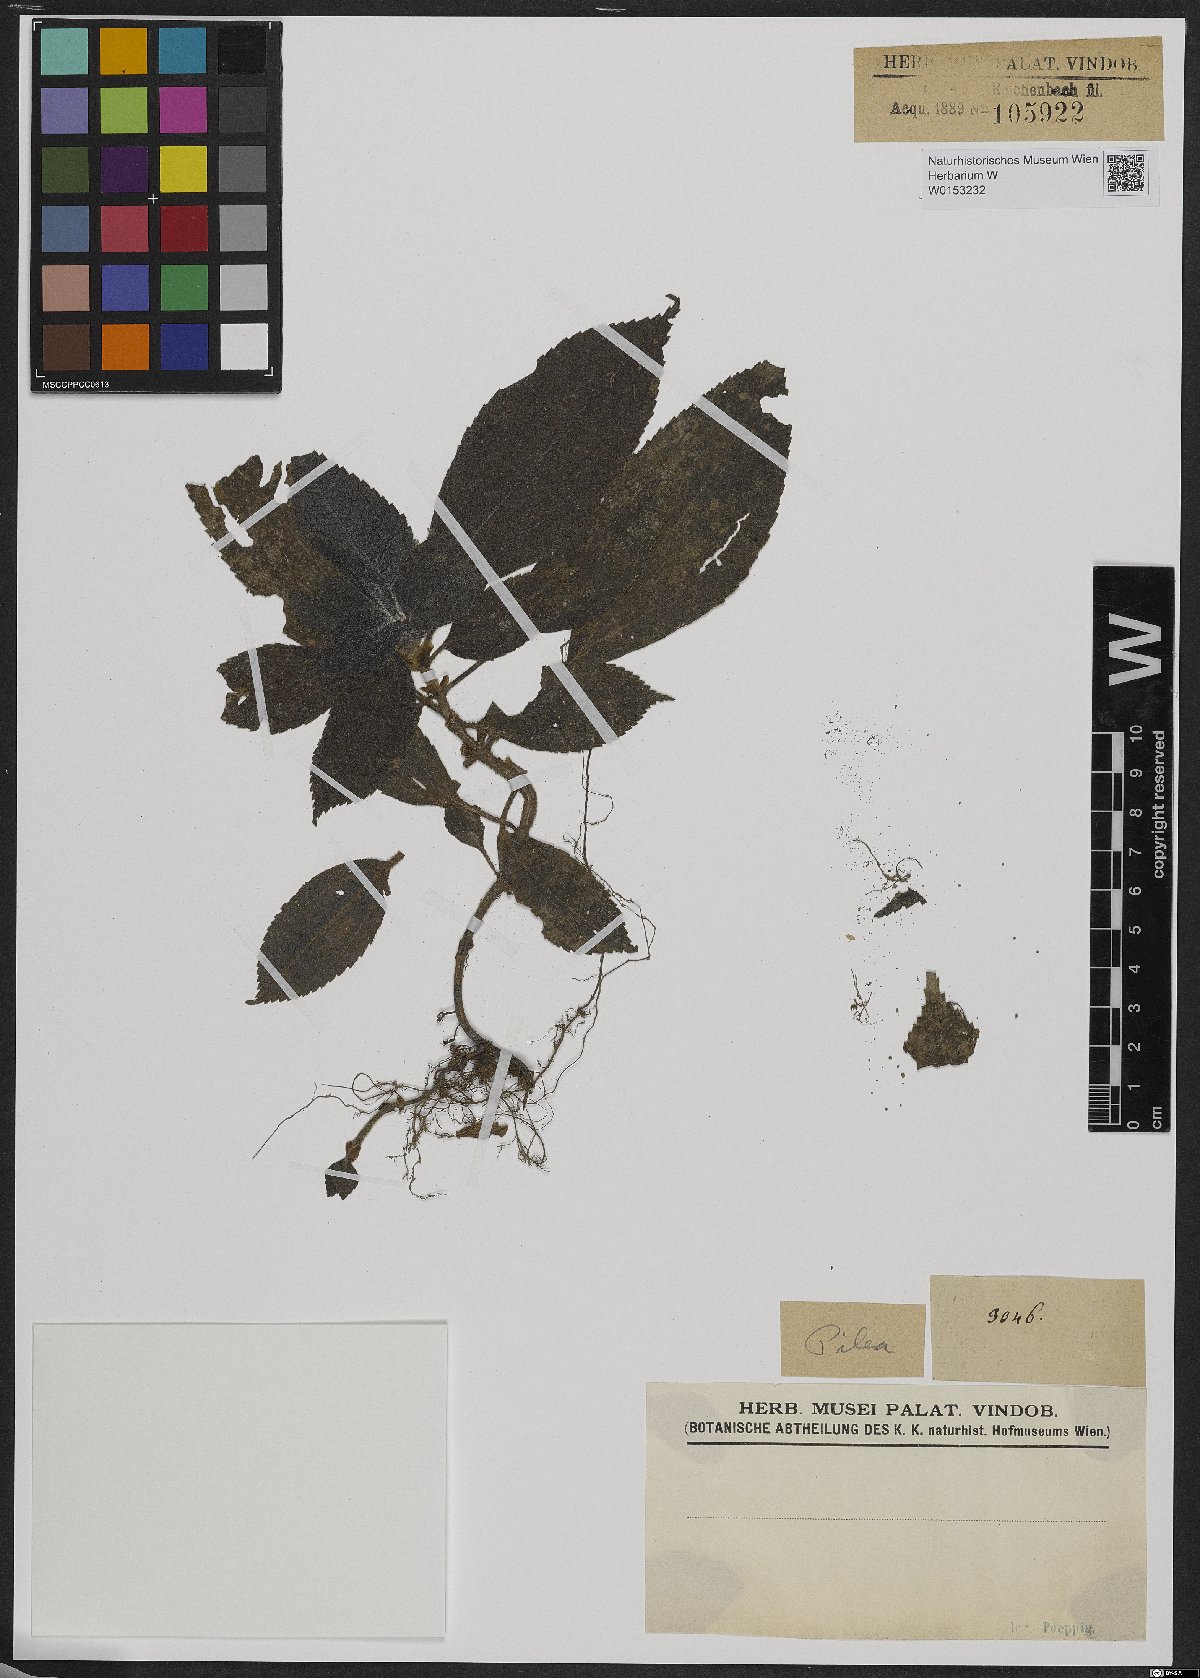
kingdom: Plantae
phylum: Tracheophyta
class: Magnoliopsida
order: Rosales
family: Urticaceae
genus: Pilea
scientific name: Pilea
